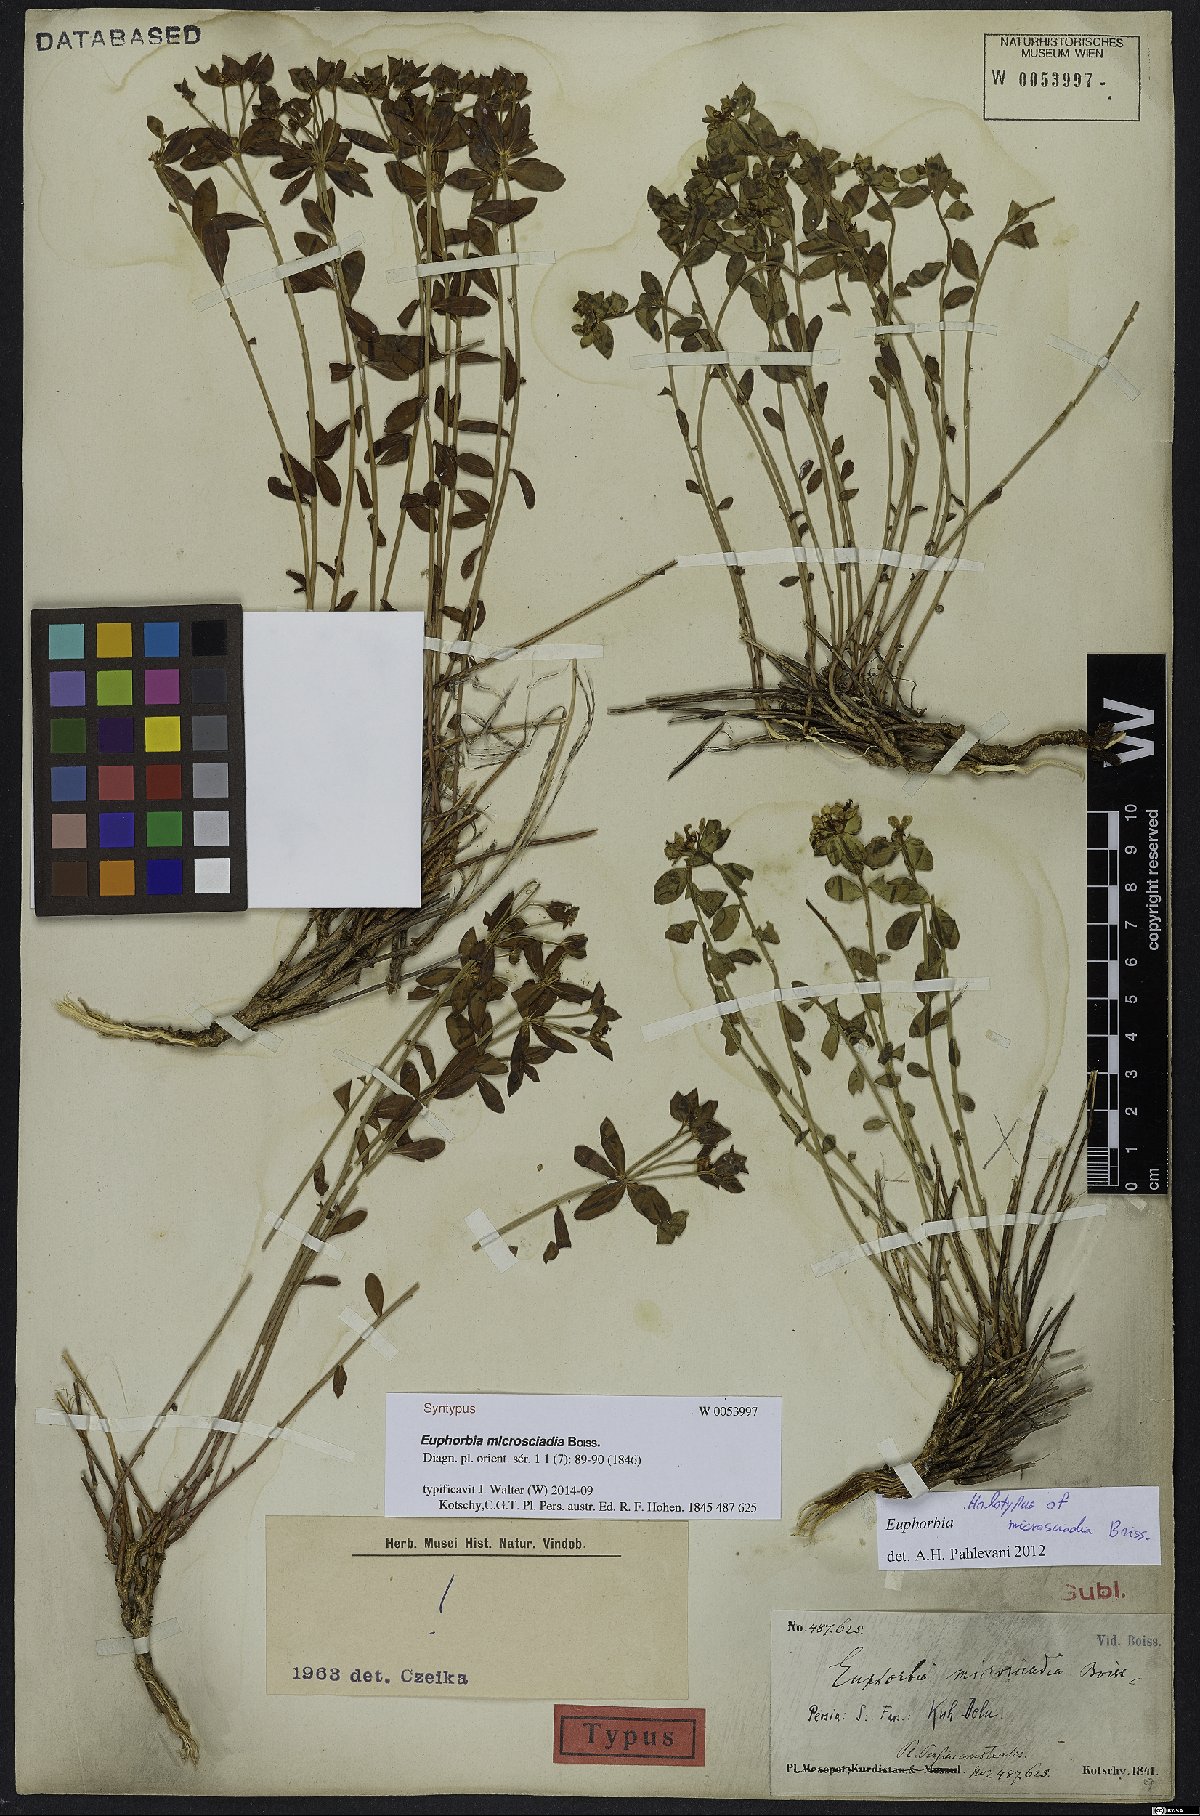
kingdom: Plantae
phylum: Tracheophyta
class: Magnoliopsida
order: Malpighiales
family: Euphorbiaceae
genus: Euphorbia
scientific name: Euphorbia microsciadia
